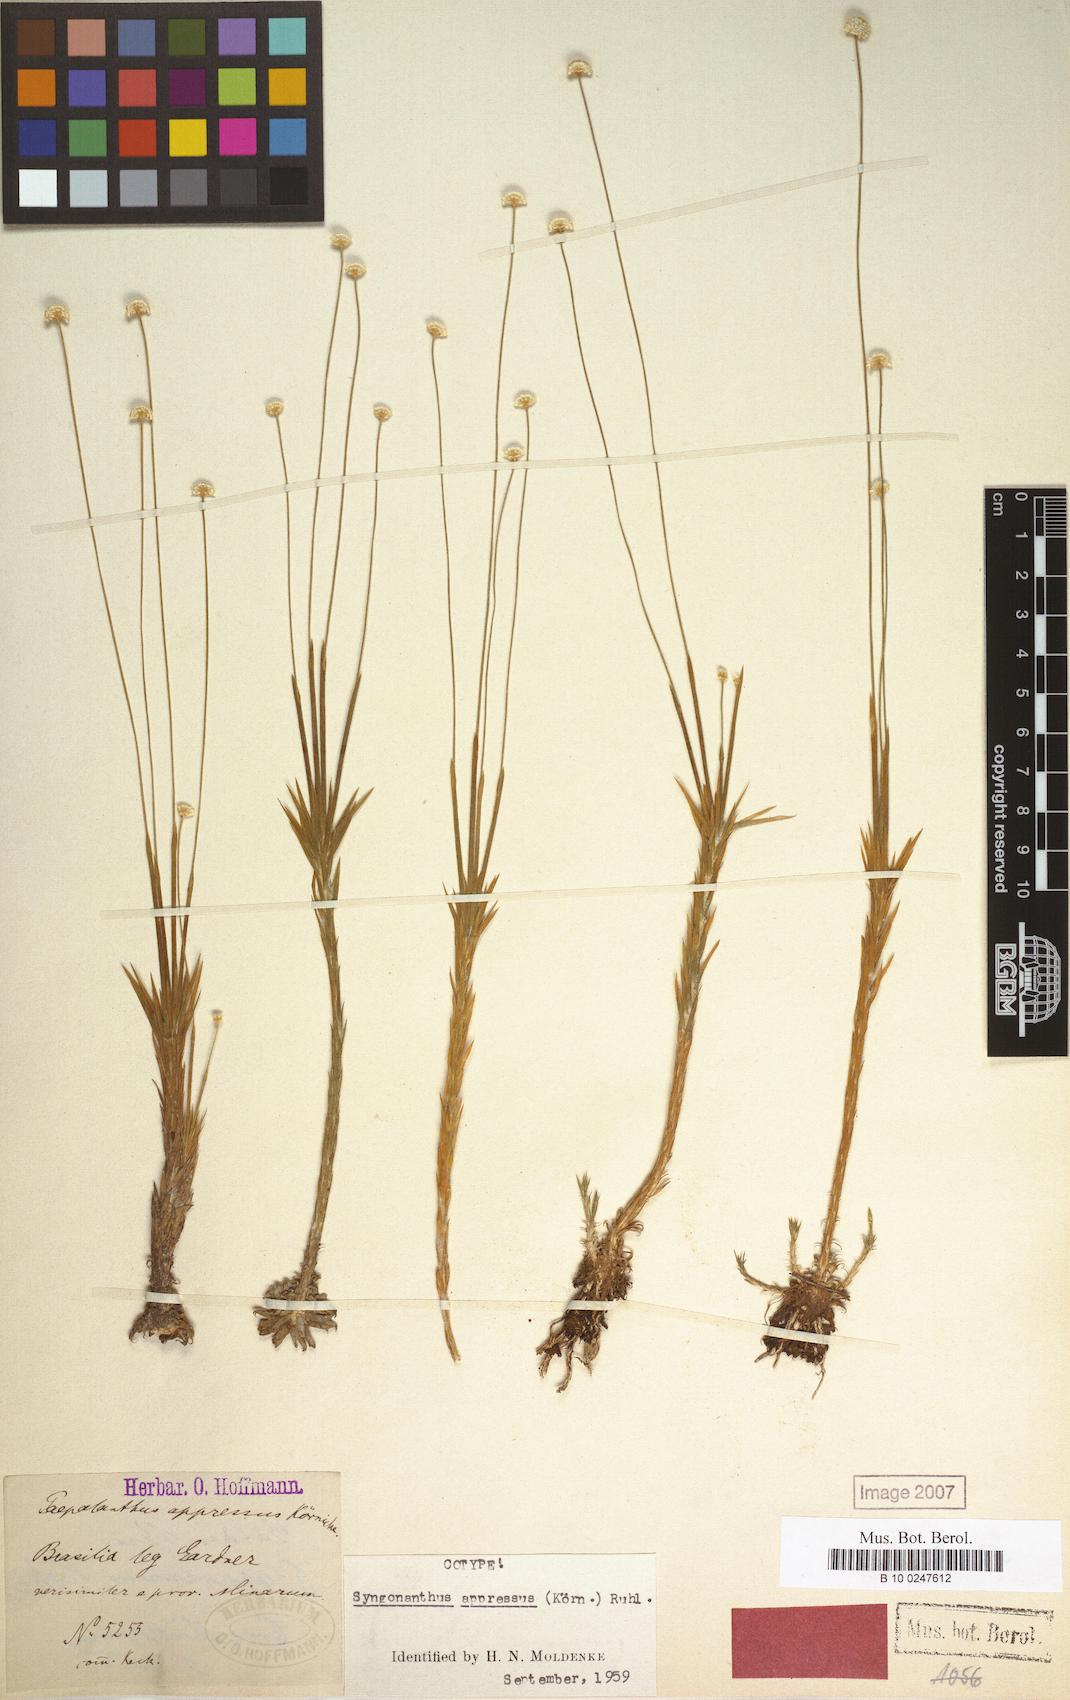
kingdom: Plantae
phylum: Tracheophyta
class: Liliopsida
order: Poales
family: Eriocaulaceae
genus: Syngonanthus
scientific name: Syngonanthus appressus
